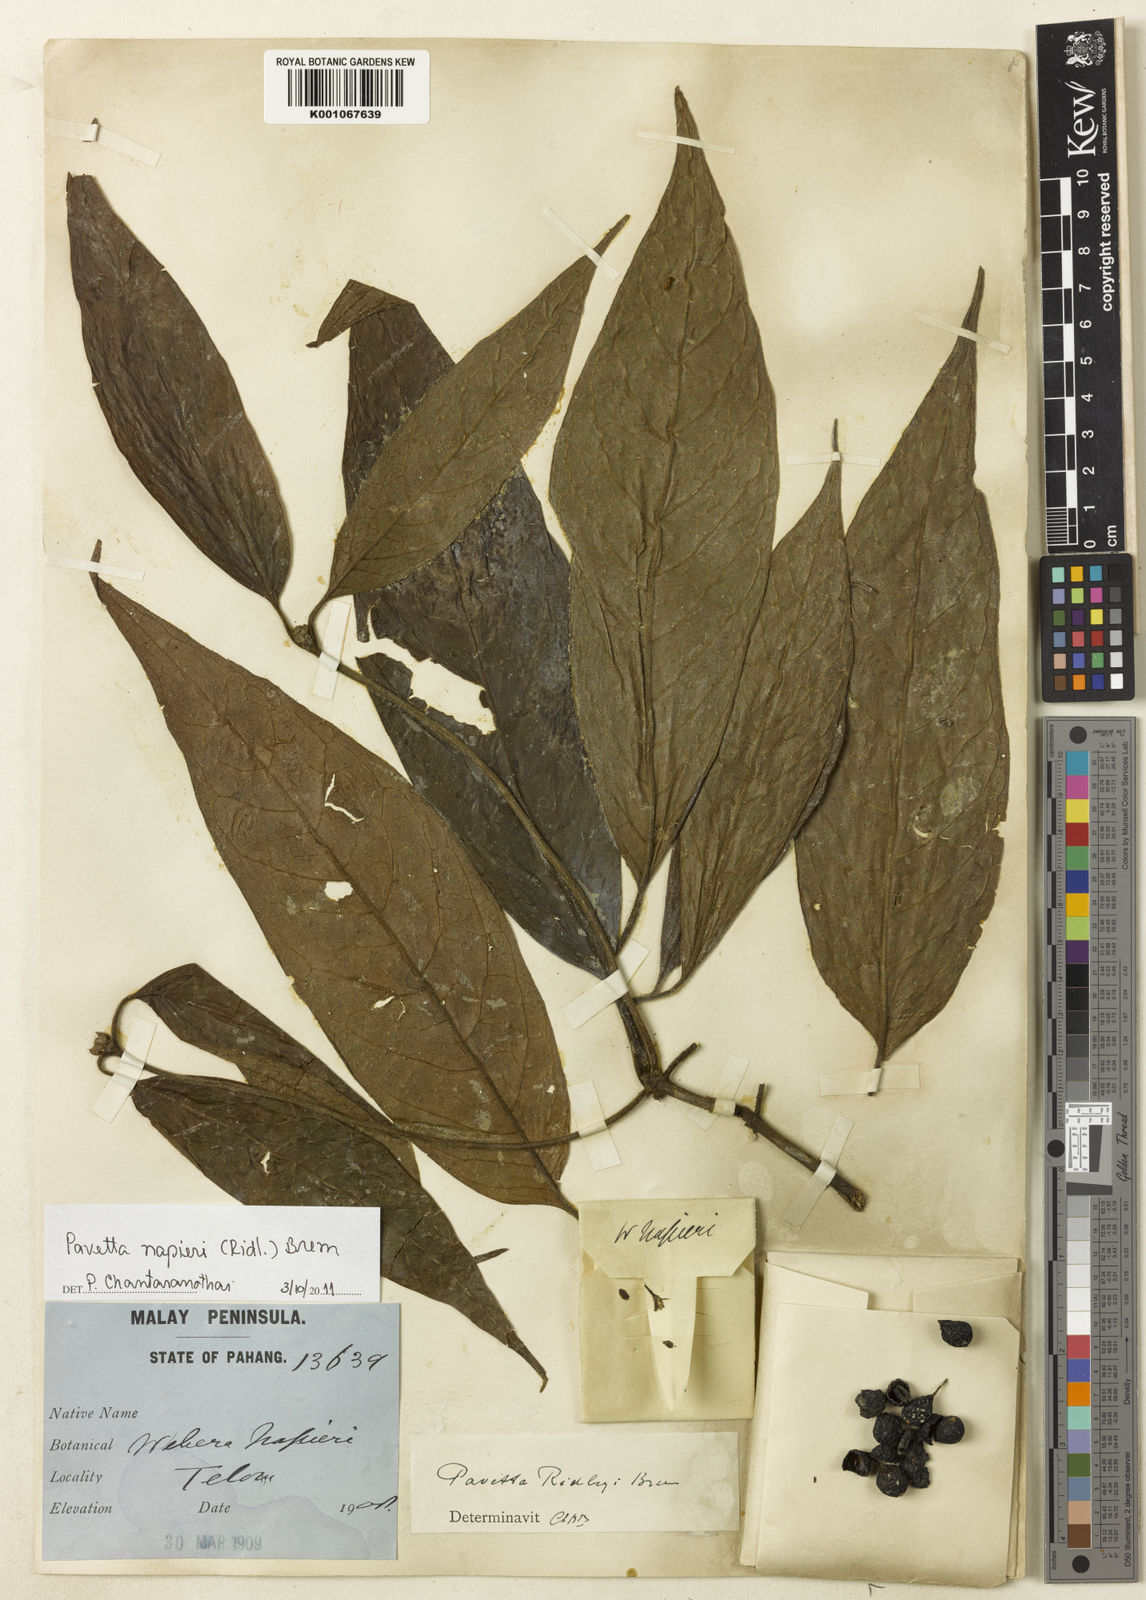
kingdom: Plantae
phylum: Tracheophyta
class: Magnoliopsida
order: Gentianales
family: Rubiaceae
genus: Pavetta
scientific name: Pavetta napieri
